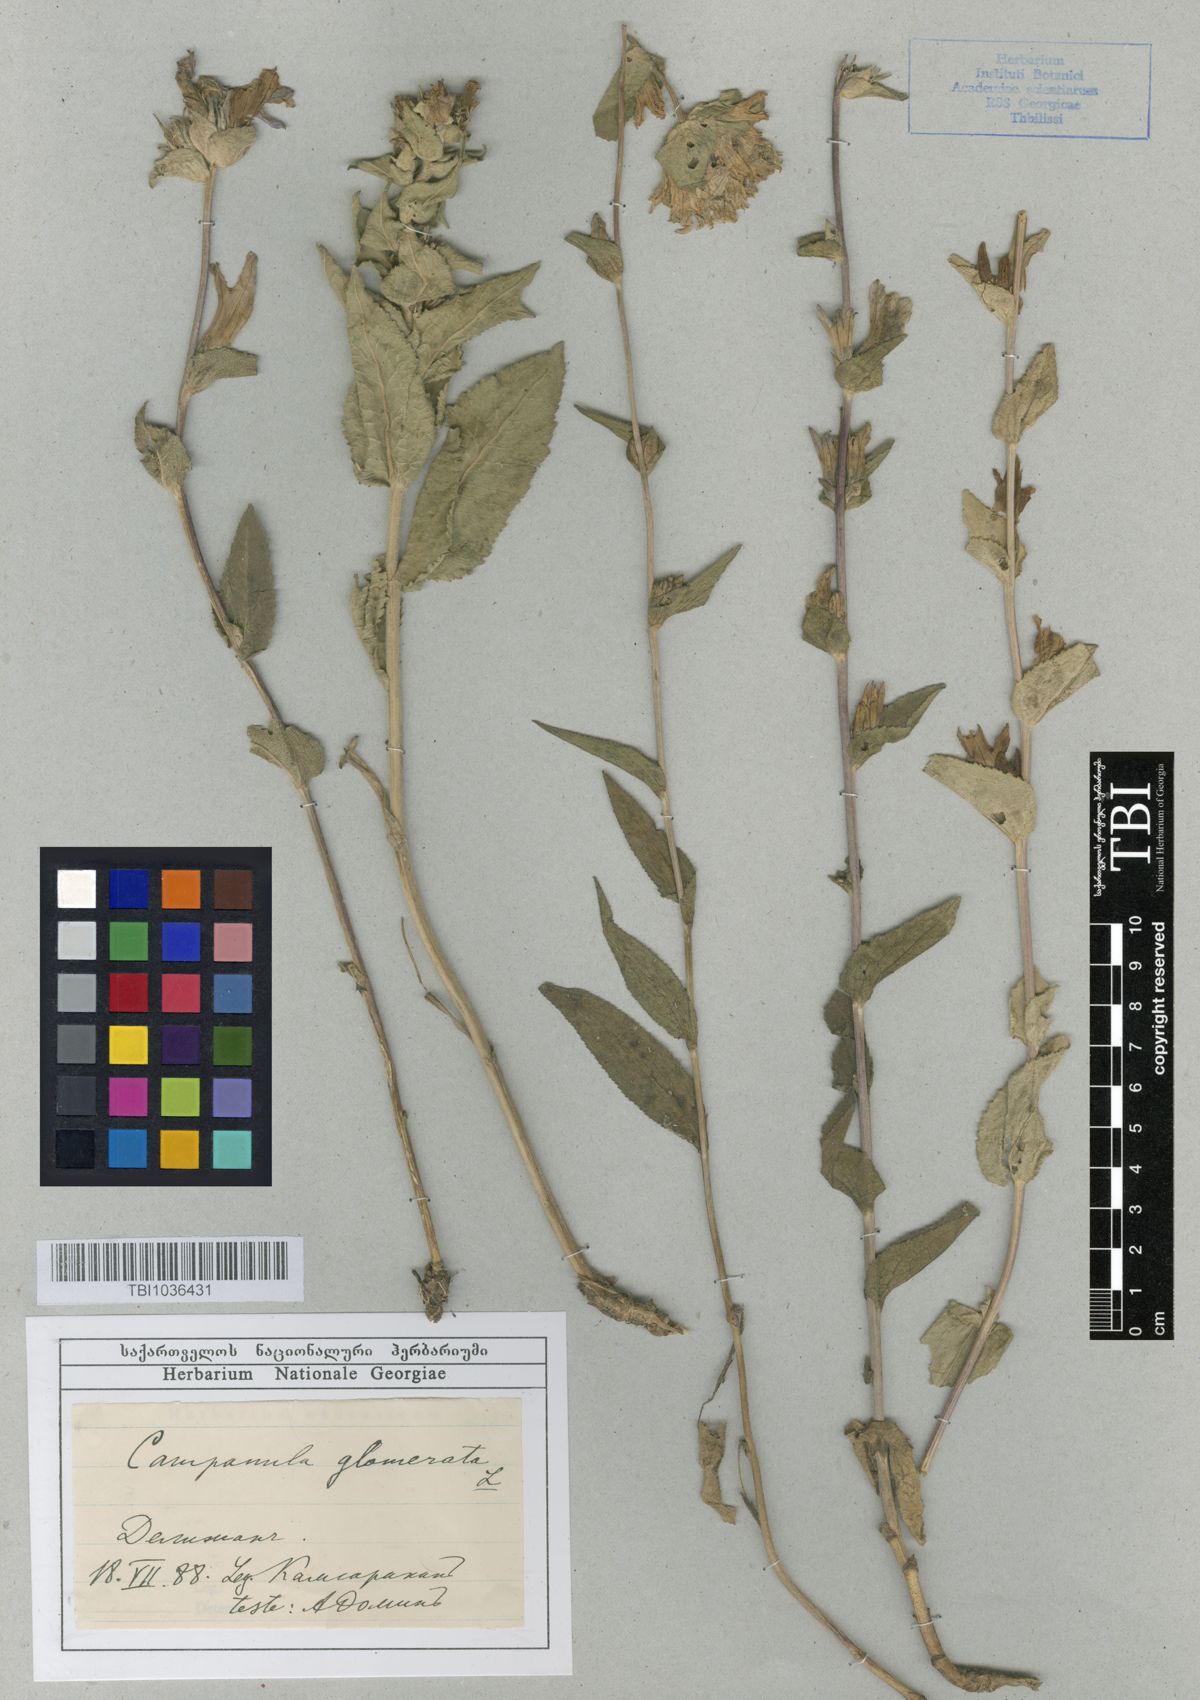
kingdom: Plantae
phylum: Tracheophyta
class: Magnoliopsida
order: Asterales
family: Campanulaceae
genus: Campanula
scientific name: Campanula glomerata
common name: Clustered bellflower
